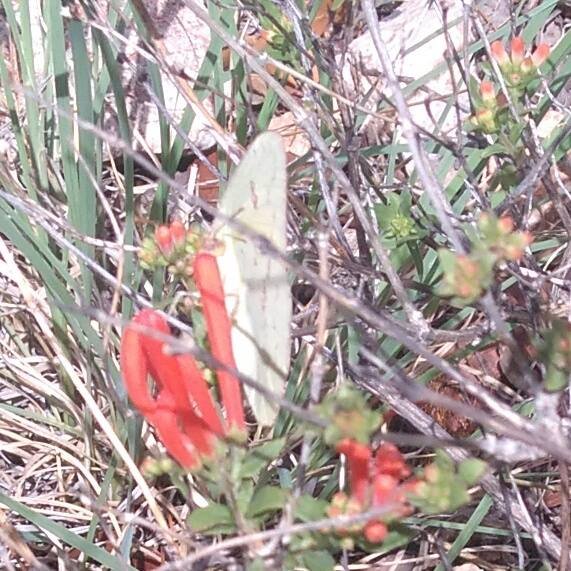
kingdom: Animalia
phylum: Arthropoda
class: Insecta
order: Lepidoptera
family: Pieridae
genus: Phoebis
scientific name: Phoebis sennae
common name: Cloudless Sulphur
